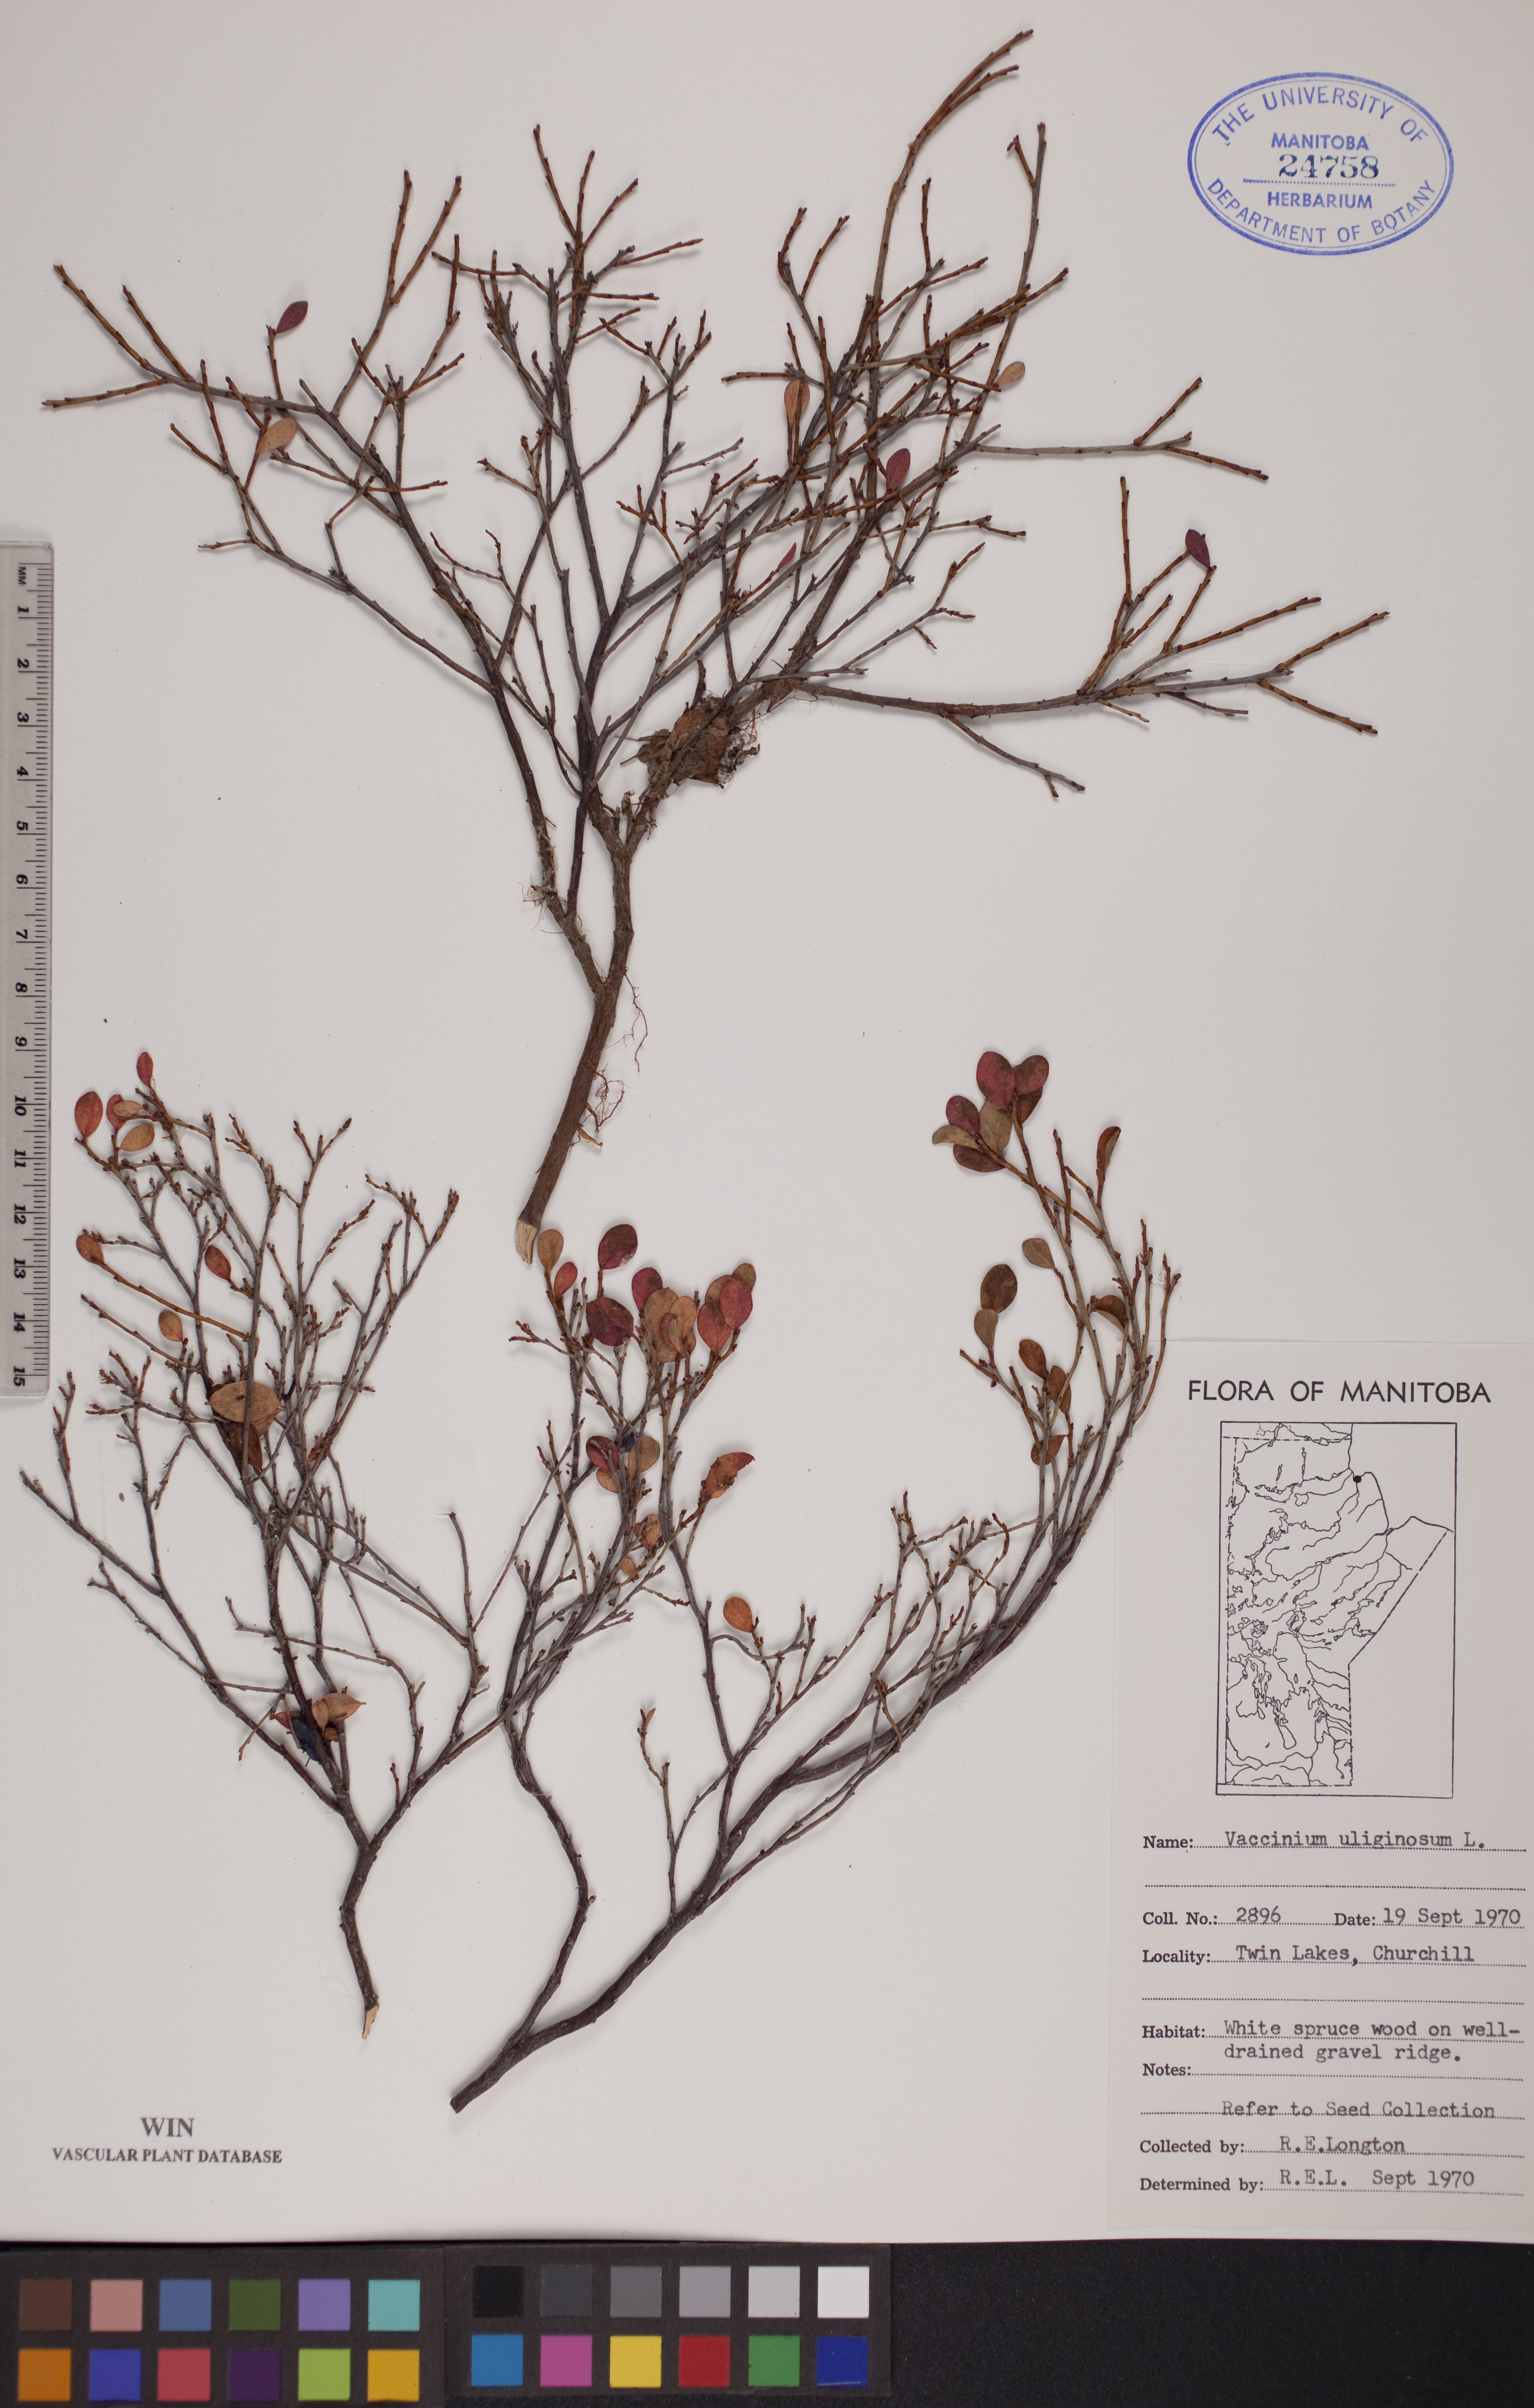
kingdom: Plantae
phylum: Tracheophyta
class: Magnoliopsida
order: Ericales
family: Ericaceae
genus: Vaccinium
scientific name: Vaccinium uliginosum
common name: Bog bilberry
